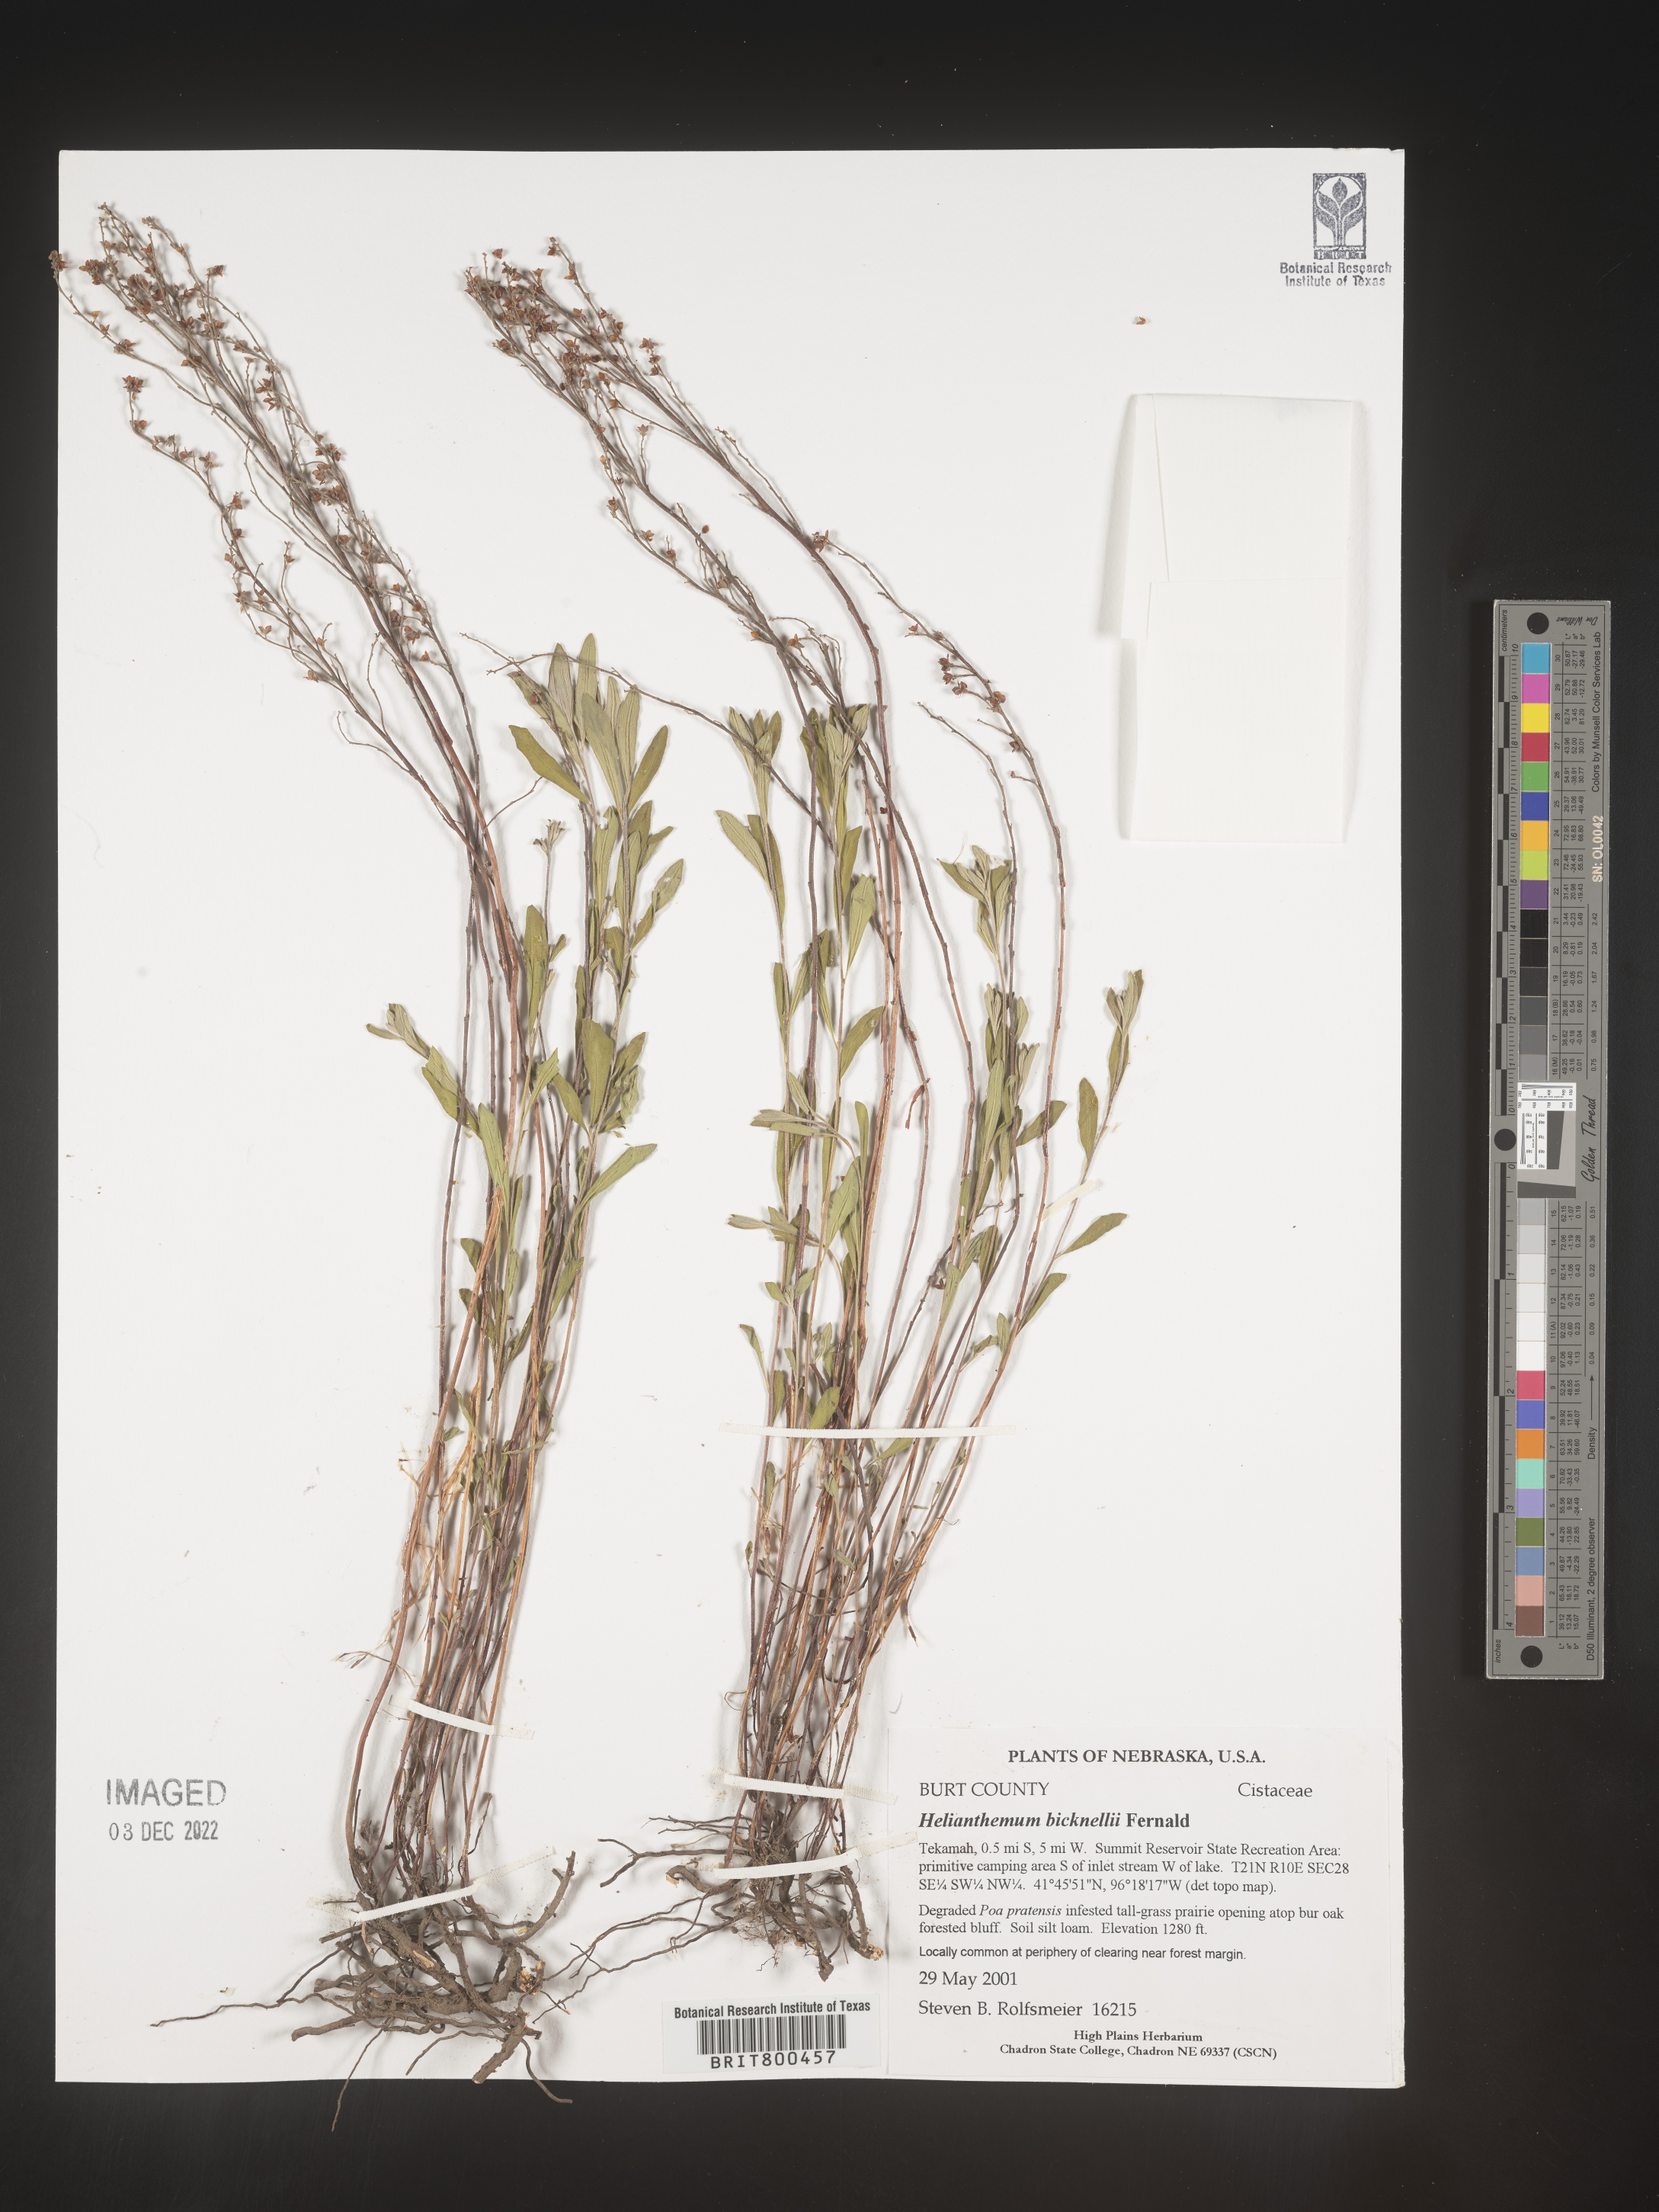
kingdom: Plantae
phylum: Tracheophyta
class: Magnoliopsida
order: Malvales
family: Cistaceae
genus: Helianthemum
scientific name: Helianthemum
